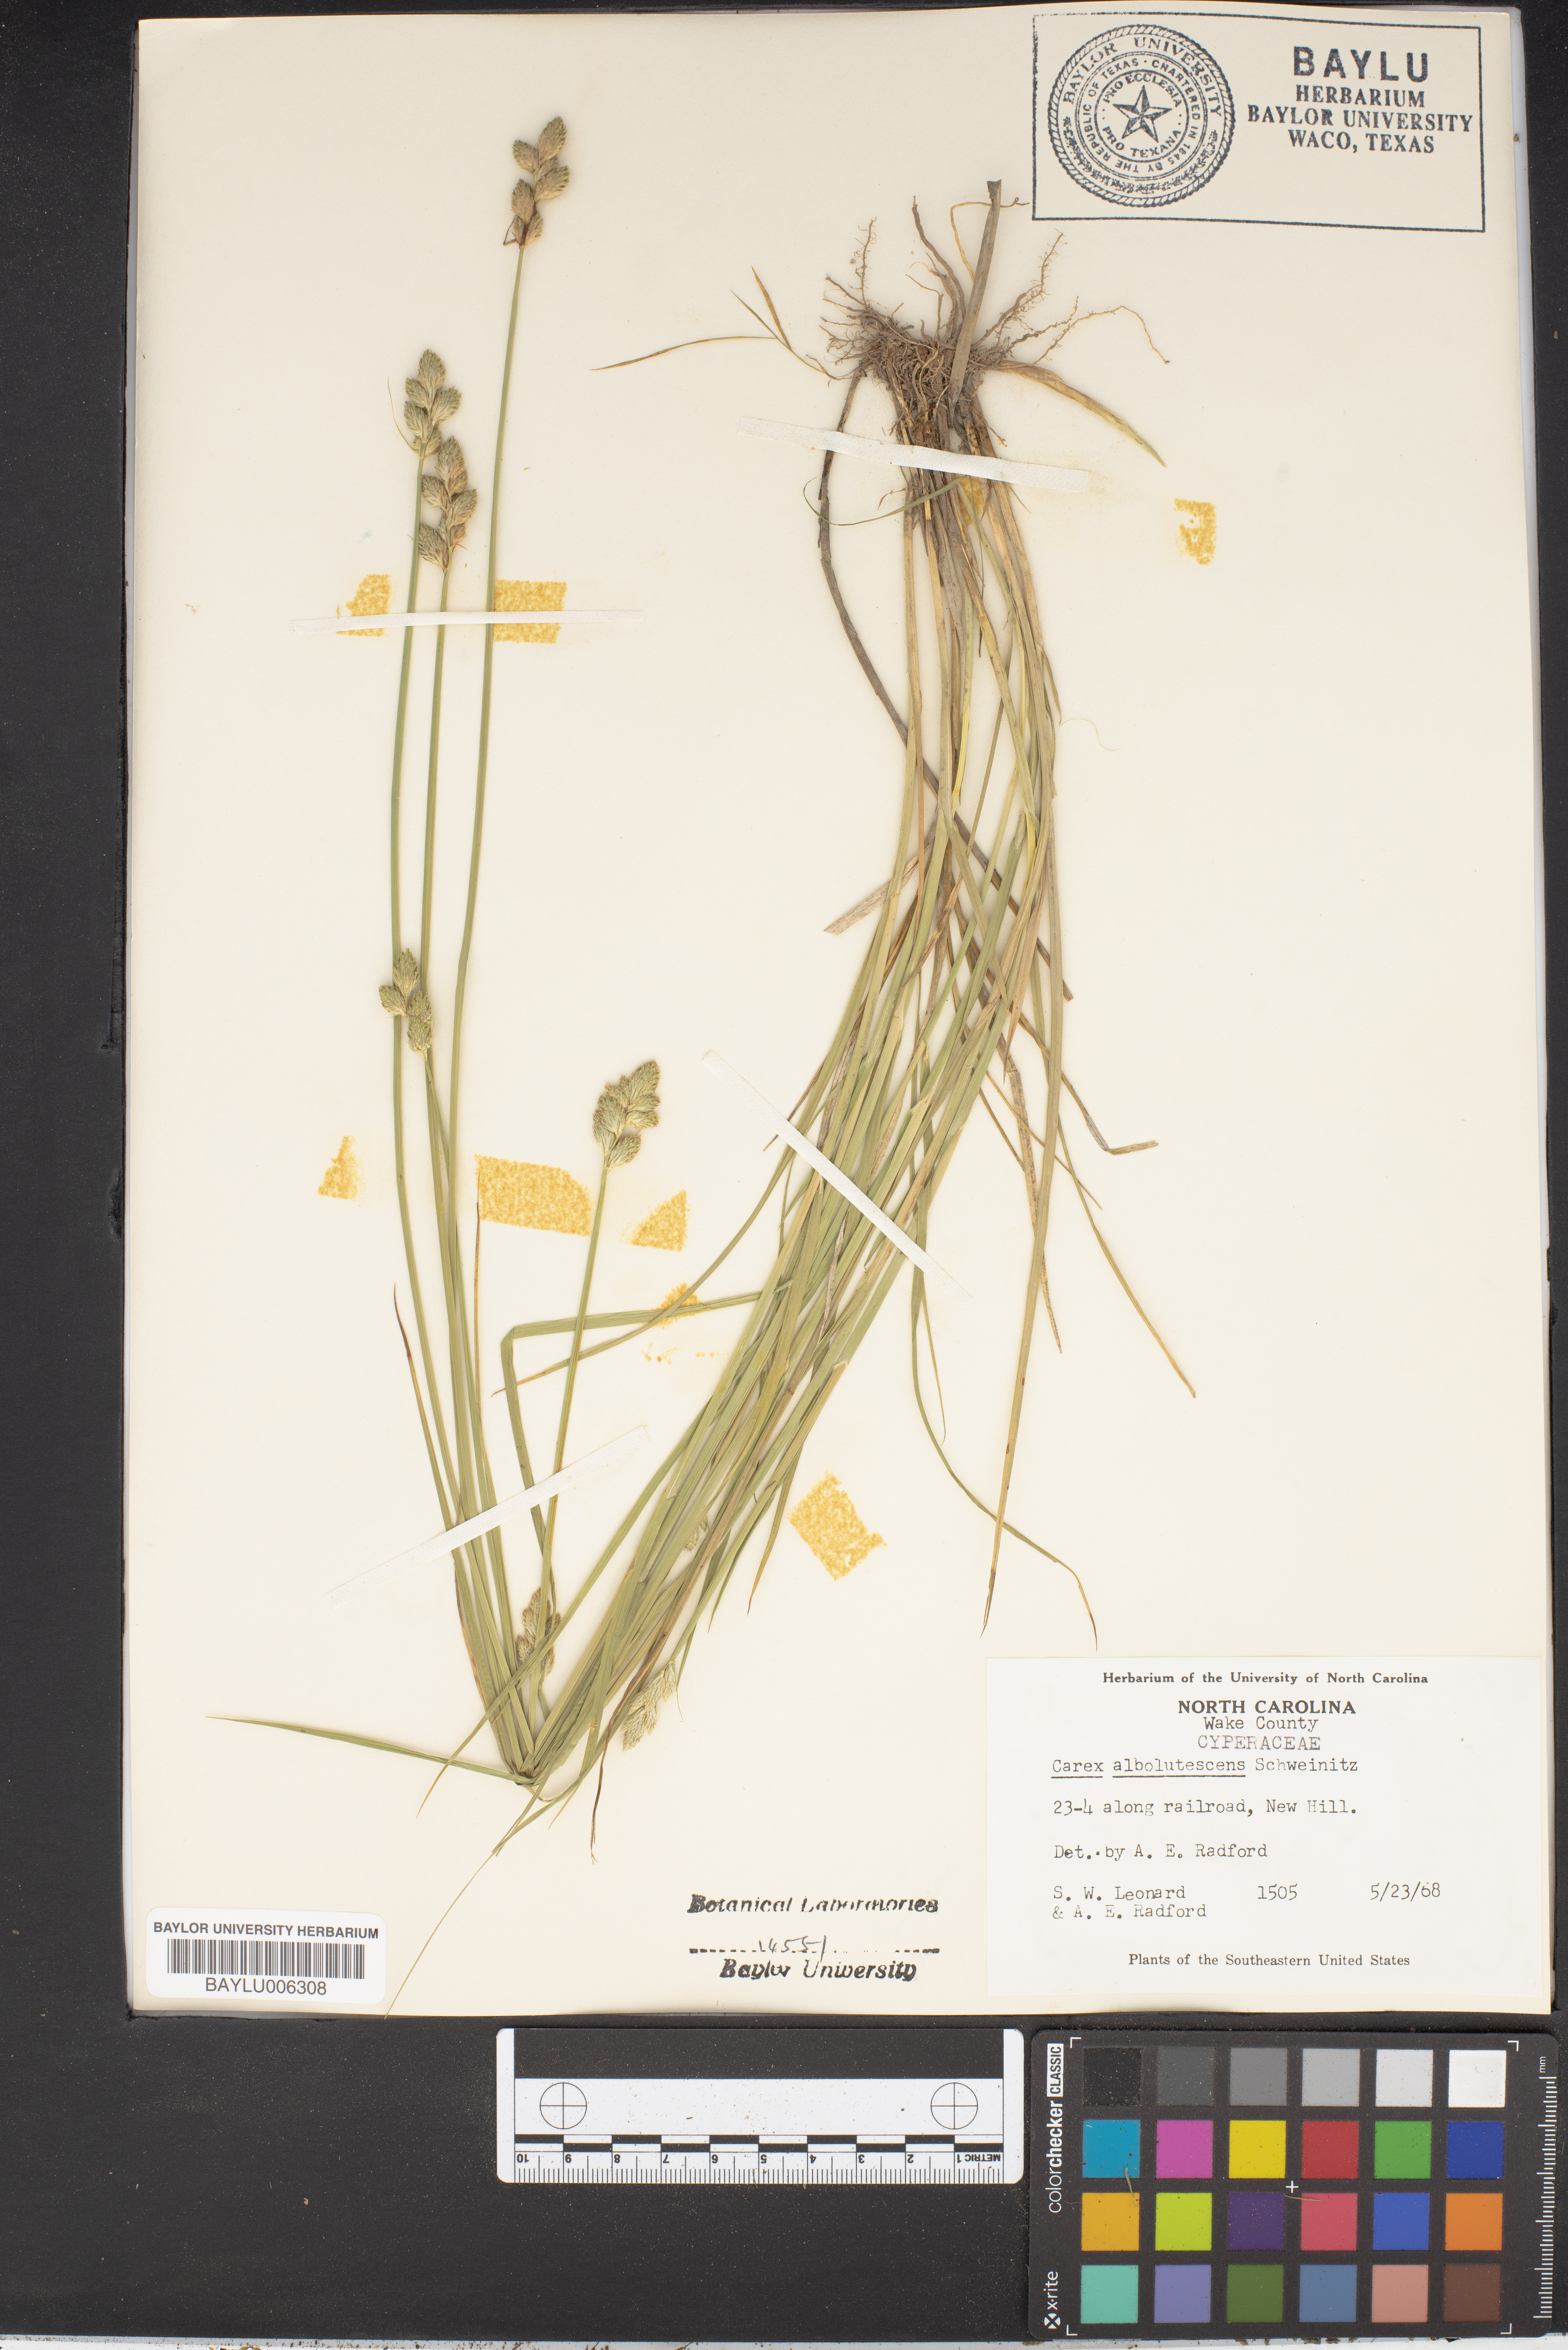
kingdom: Plantae
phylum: Tracheophyta
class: Liliopsida
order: Poales
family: Cyperaceae
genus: Carex
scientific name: Carex albolutescens
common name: Freenish white sedge
